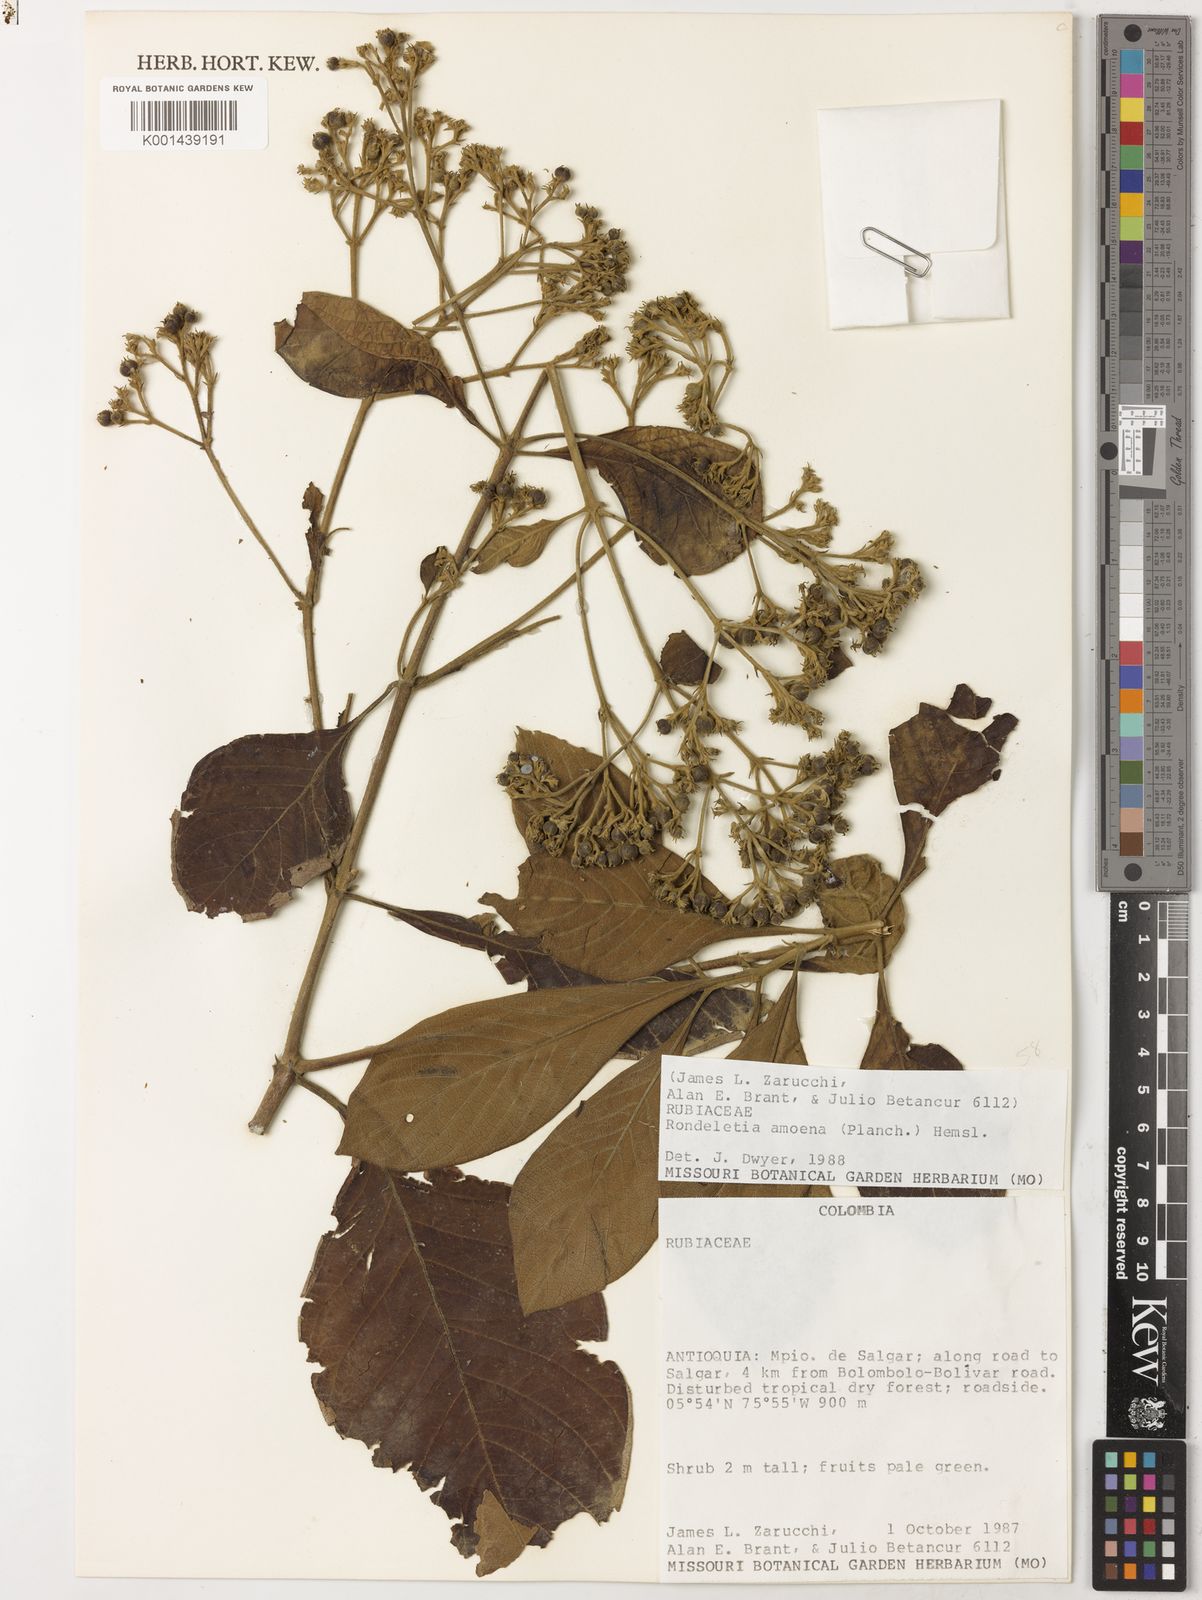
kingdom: Plantae
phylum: Tracheophyta
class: Magnoliopsida
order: Gentianales
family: Rubiaceae
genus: Rogiera
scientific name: Rogiera amoena
